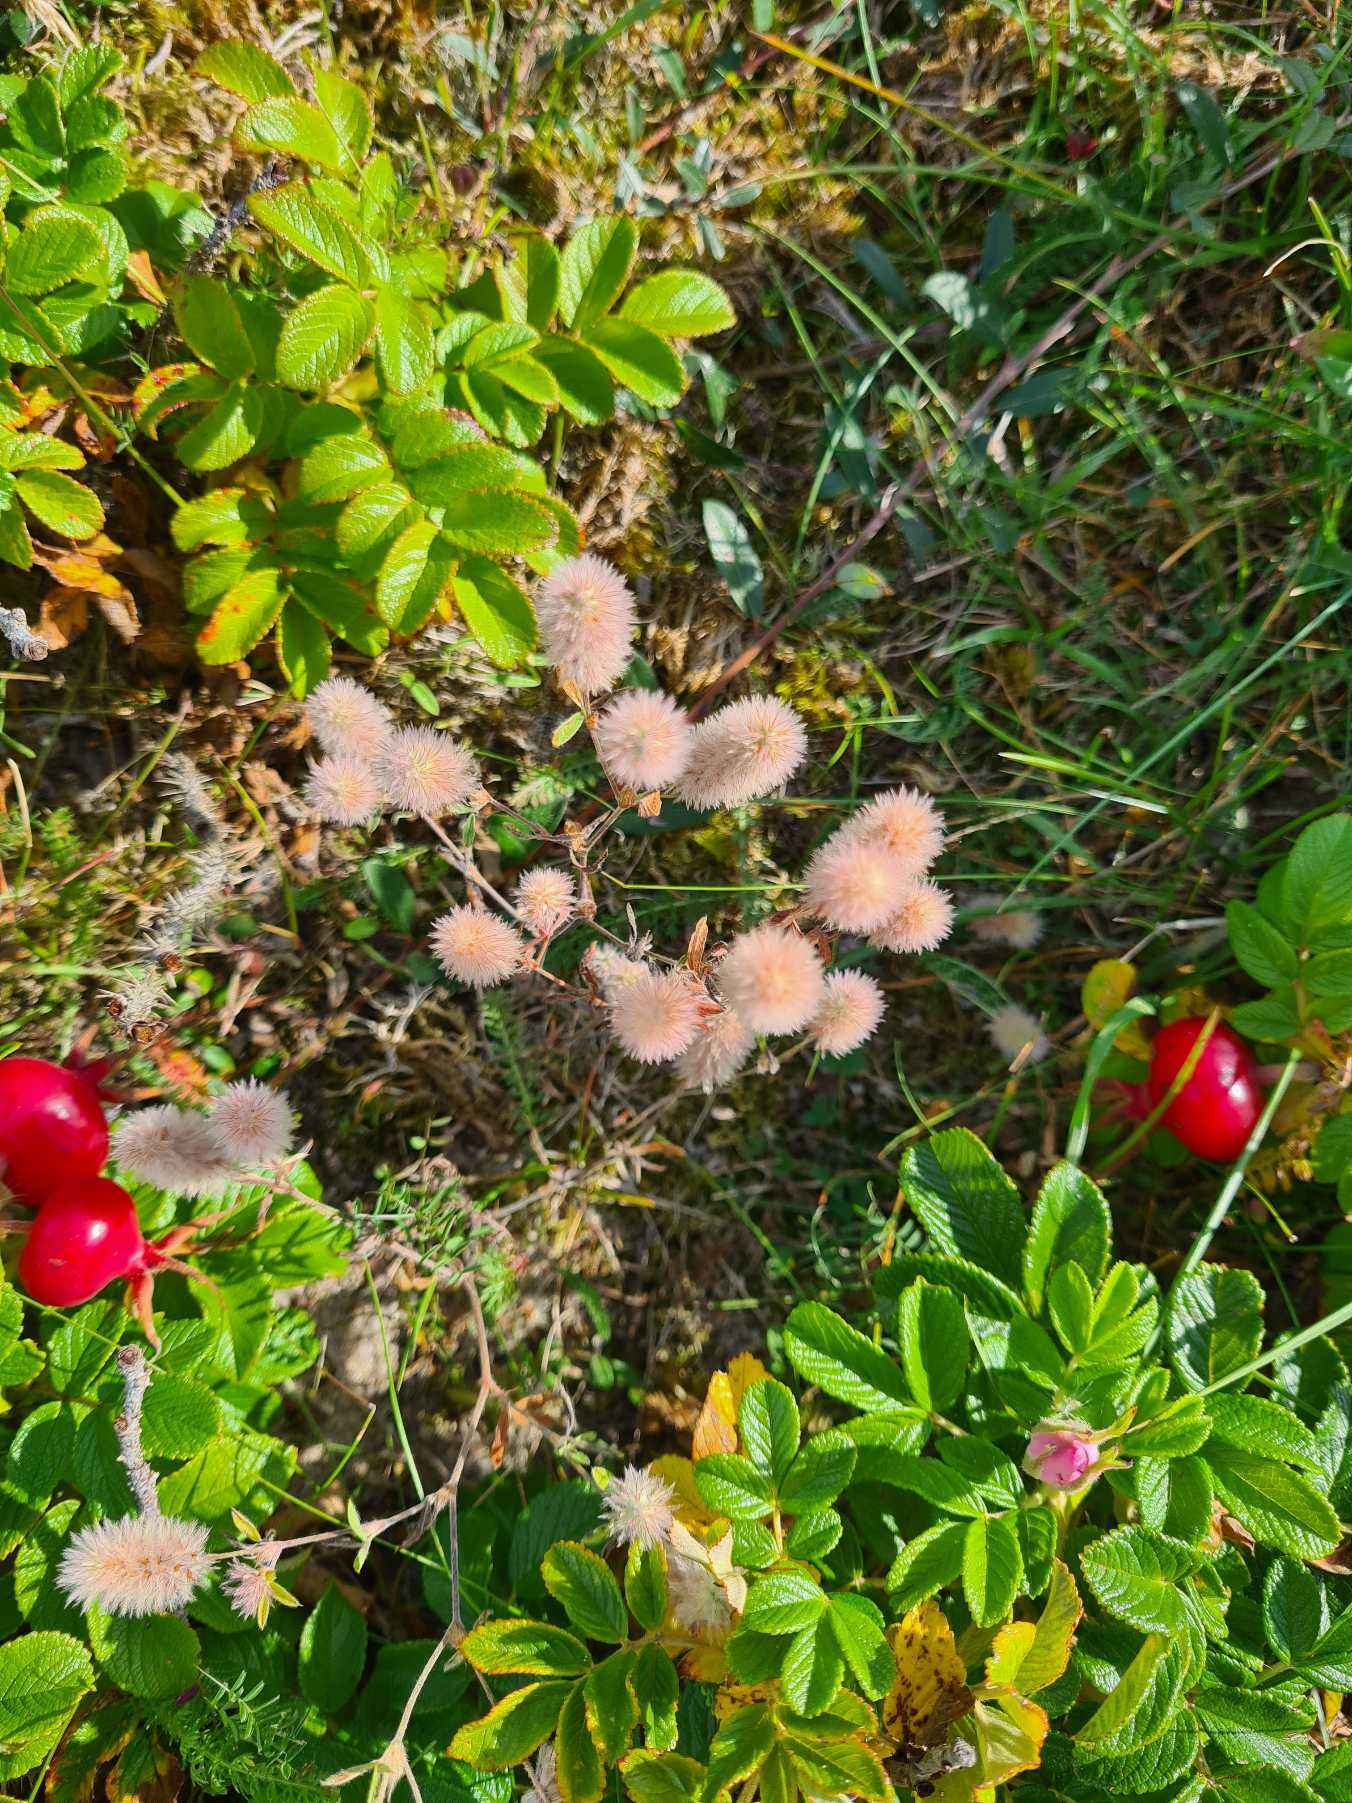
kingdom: Plantae
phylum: Tracheophyta
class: Magnoliopsida
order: Fabales
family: Fabaceae
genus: Trifolium
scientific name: Trifolium arvense
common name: Hare-kløver
